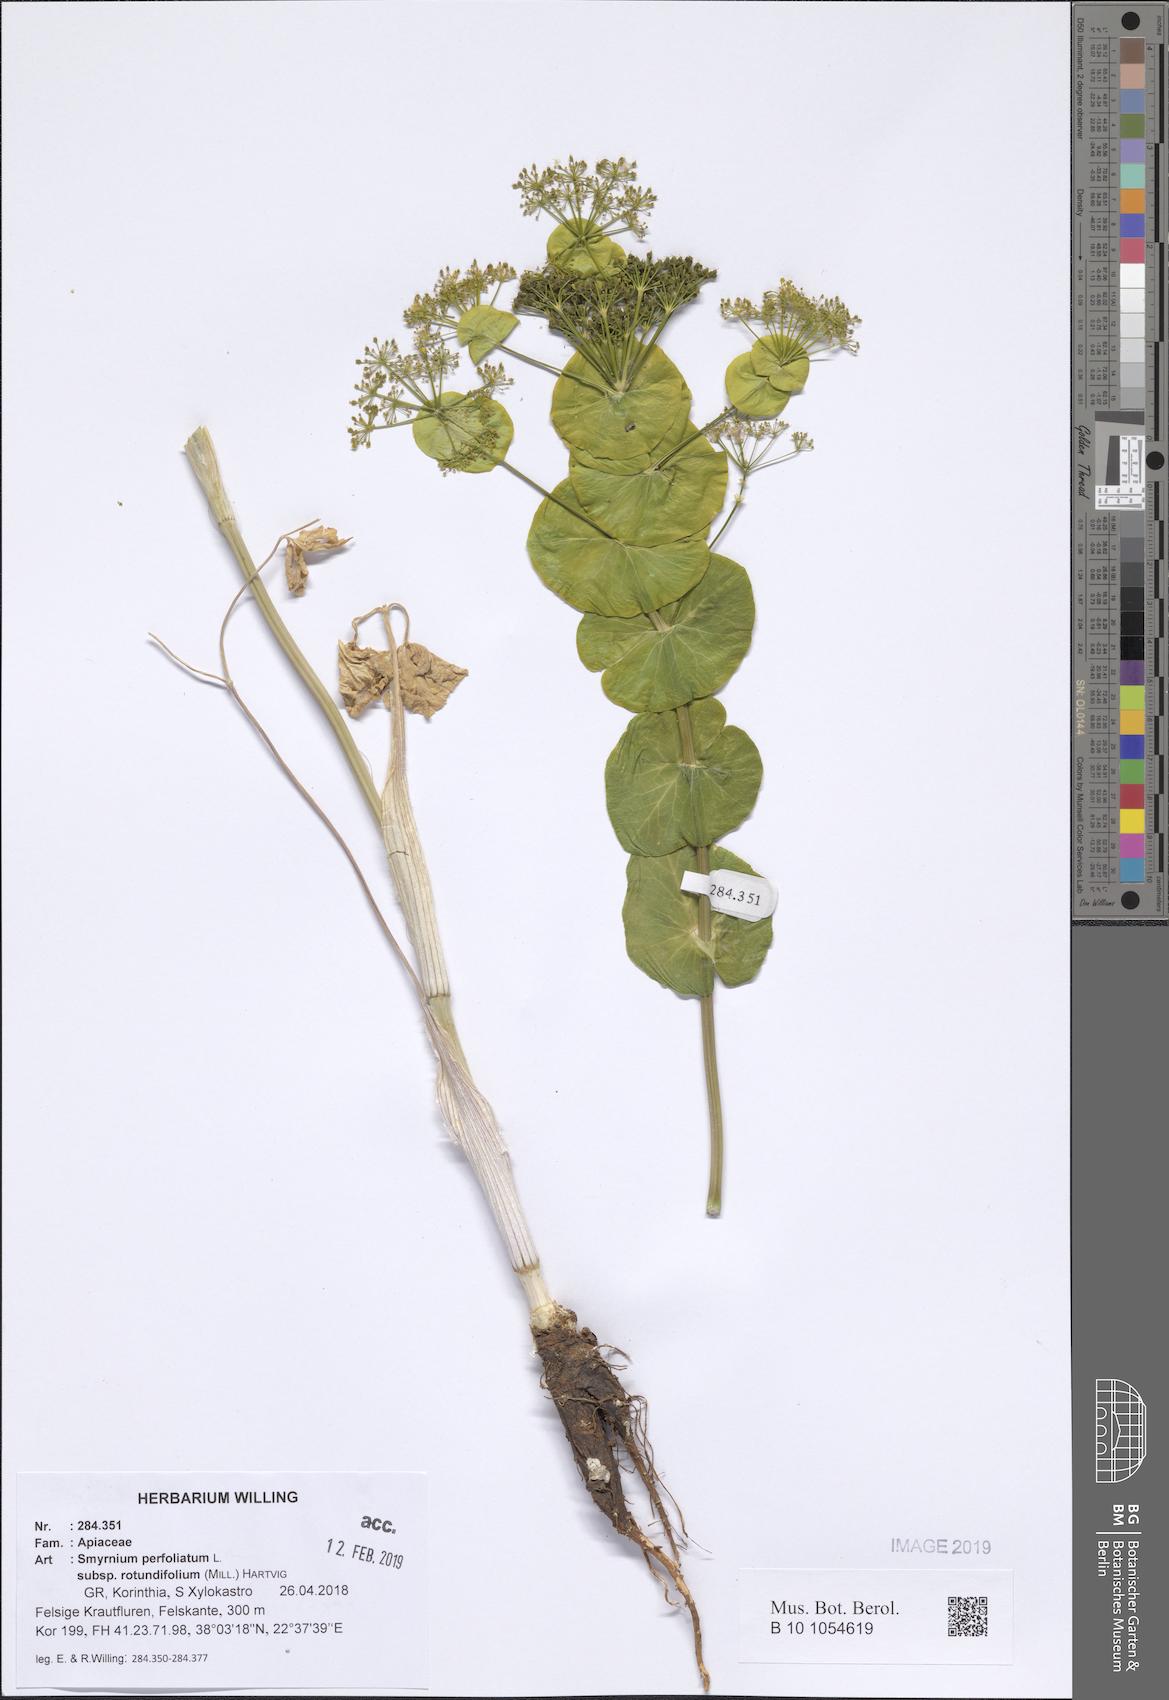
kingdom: Plantae
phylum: Tracheophyta
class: Magnoliopsida
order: Apiales
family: Apiaceae
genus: Smyrnium
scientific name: Smyrnium perfoliatum
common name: Perfoliate alexanders
